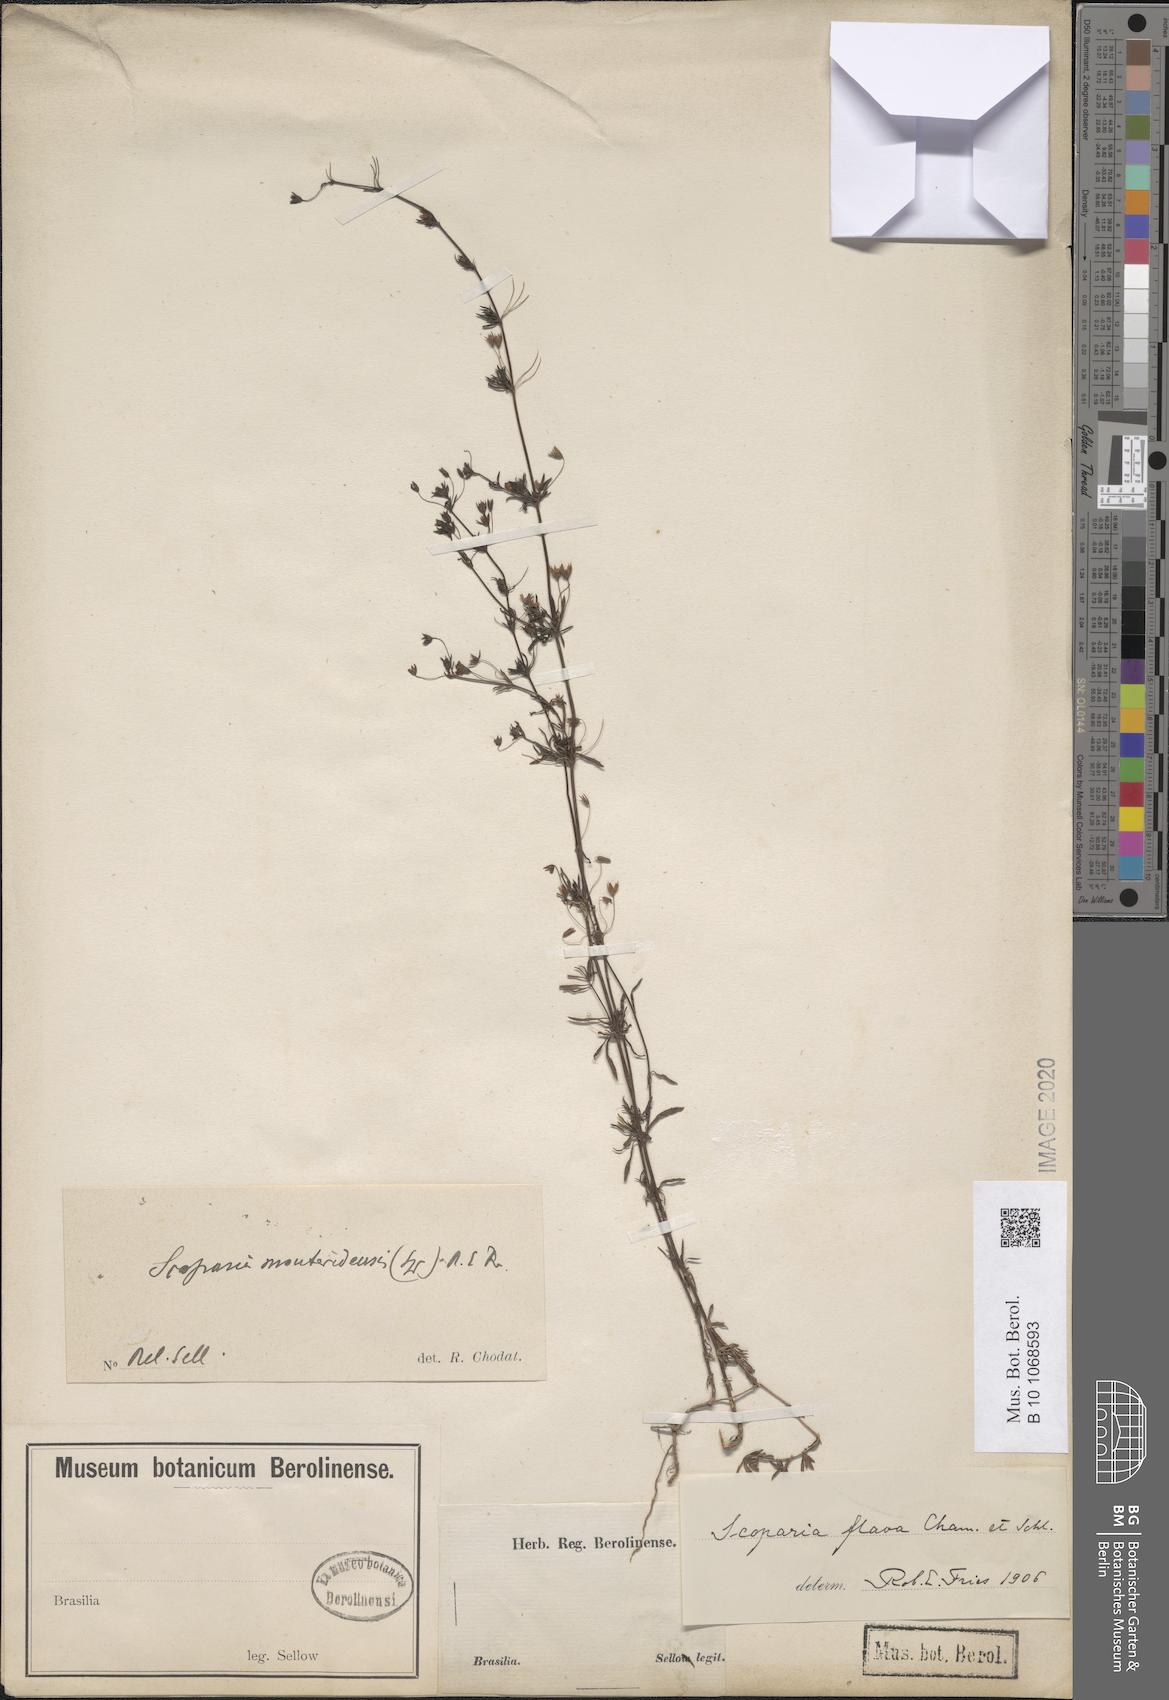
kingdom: Plantae
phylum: Tracheophyta
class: Magnoliopsida
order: Lamiales
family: Plantaginaceae
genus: Scoparia
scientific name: Scoparia montevidensis
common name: Broomwort
